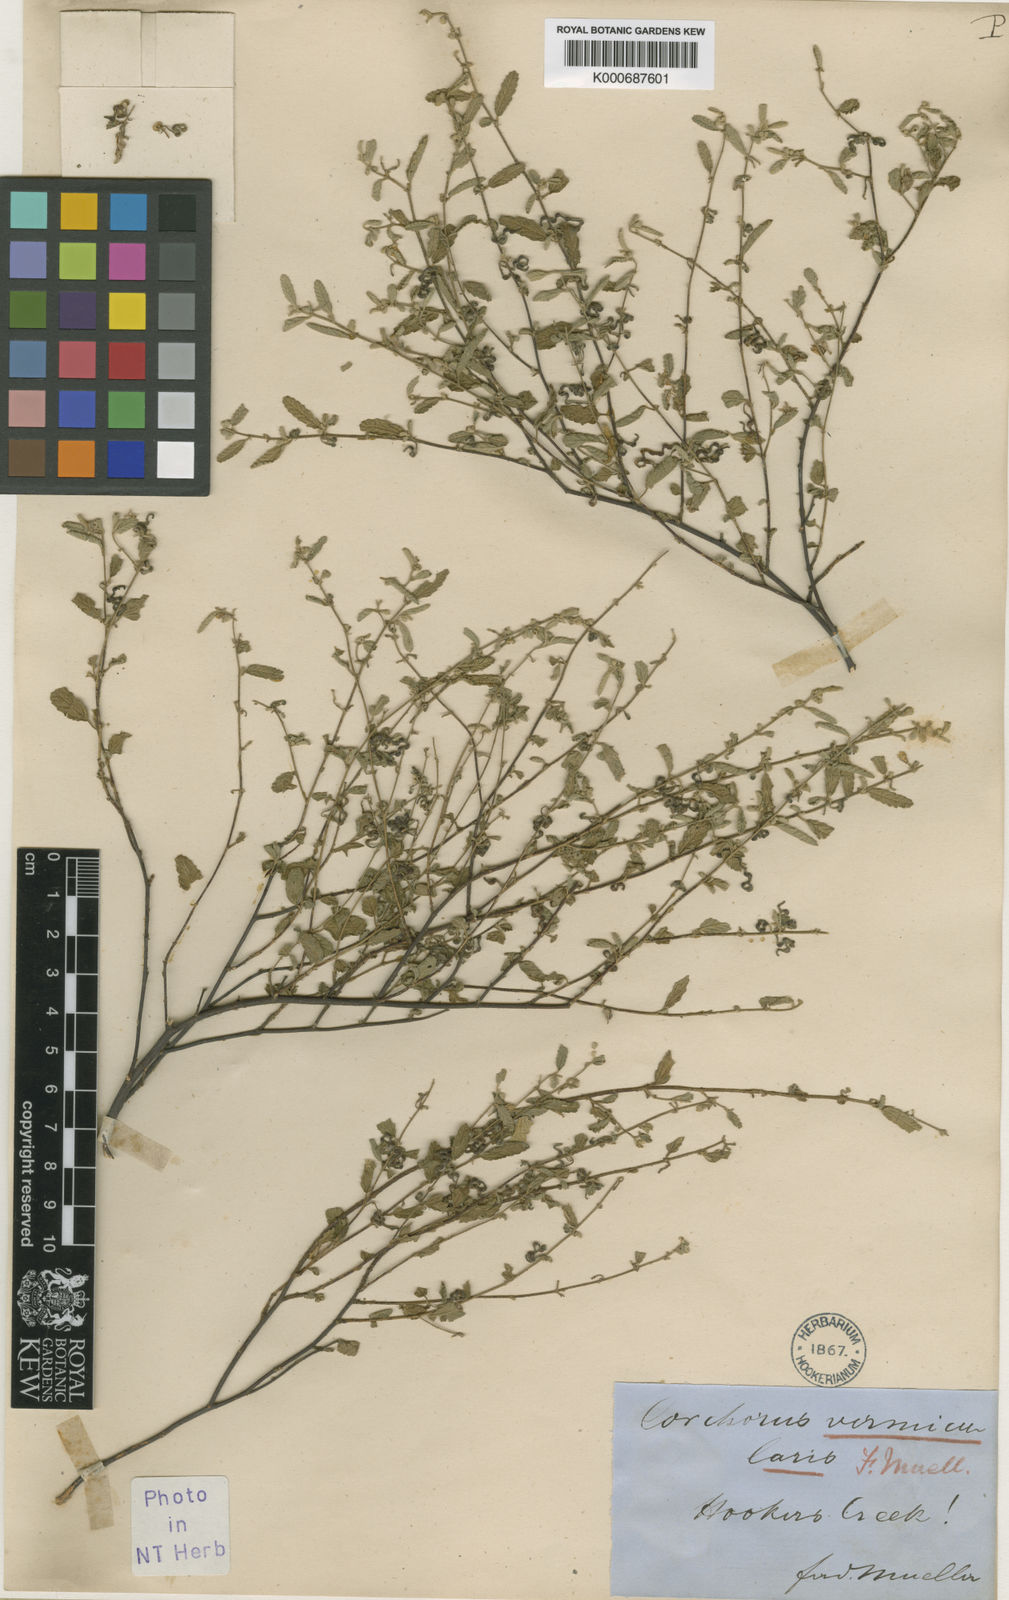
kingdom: Plantae
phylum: Tracheophyta
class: Magnoliopsida
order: Malvales
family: Malvaceae
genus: Corchorus
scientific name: Corchorus sidoides
